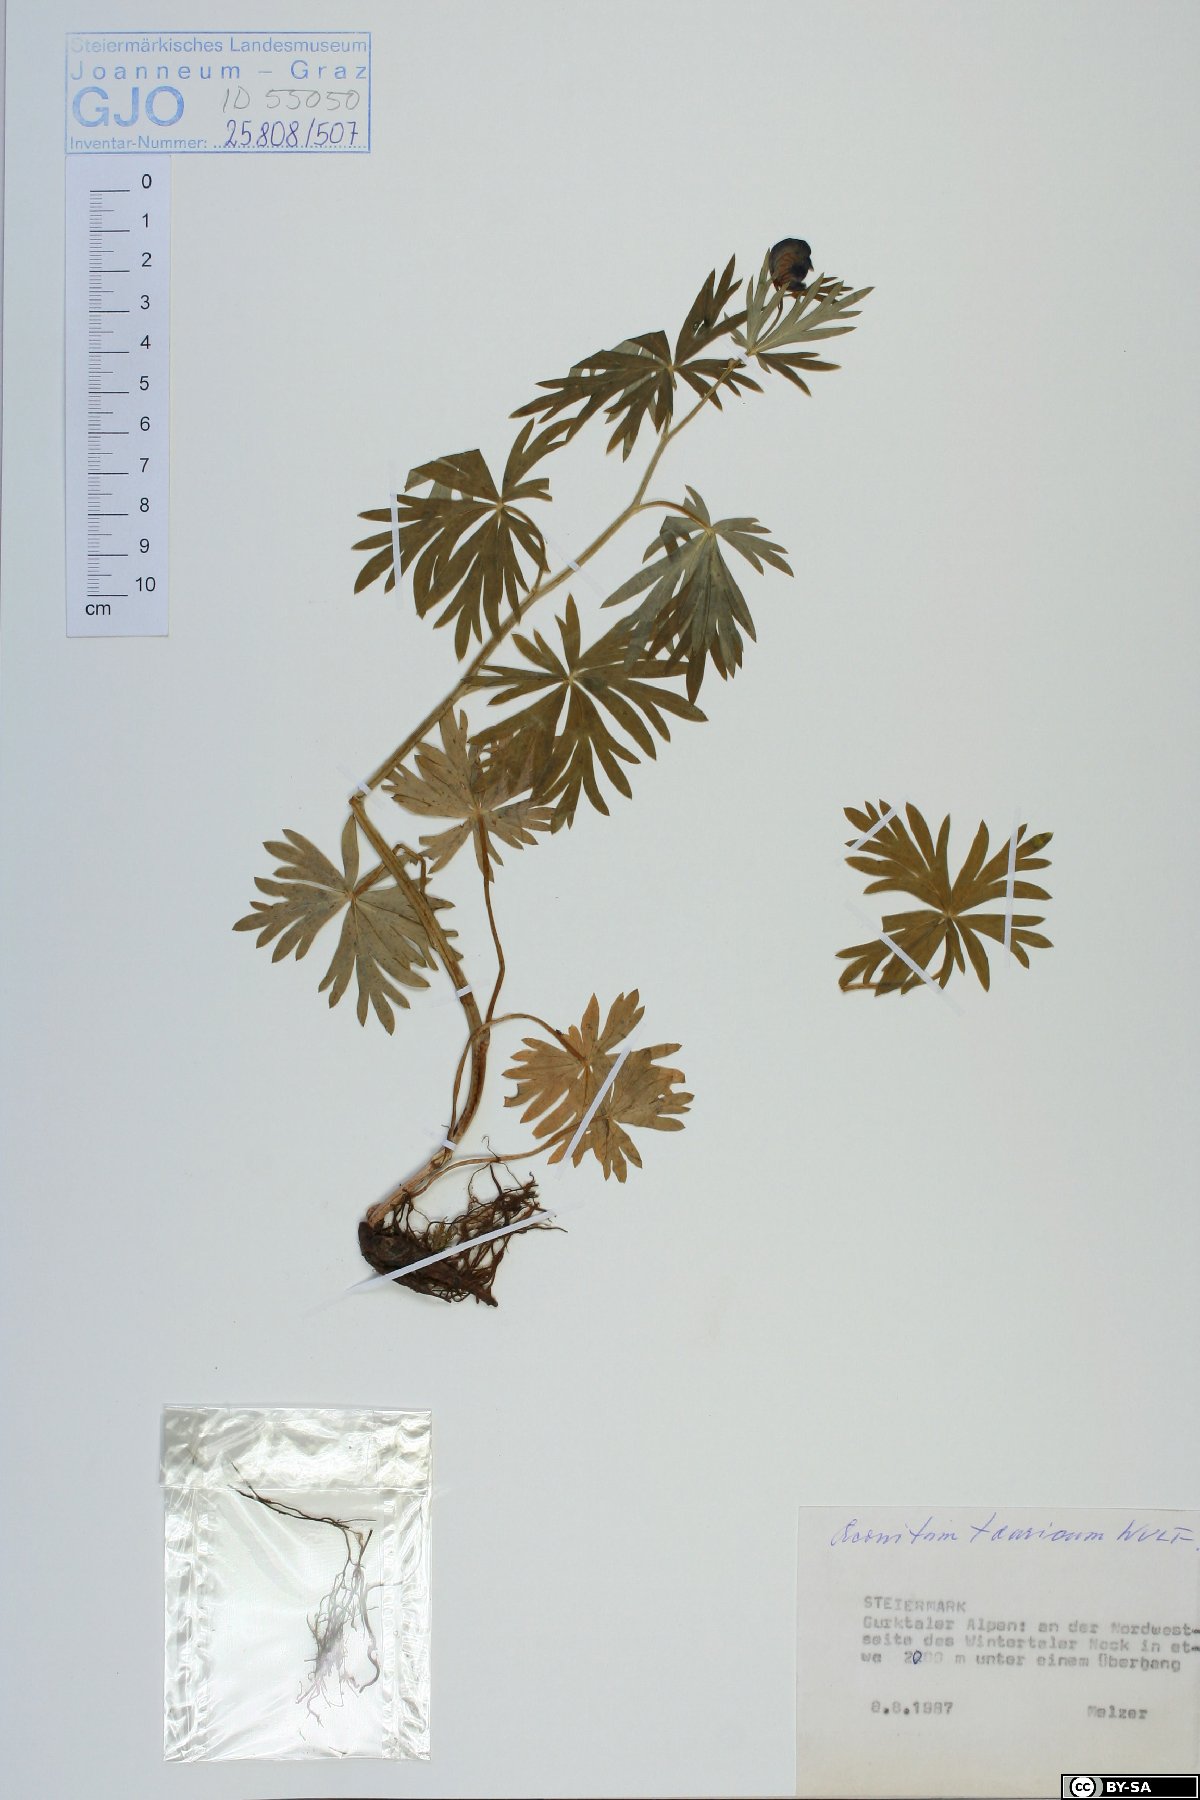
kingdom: Plantae
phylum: Tracheophyta
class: Magnoliopsida
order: Ranunculales
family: Ranunculaceae
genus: Aconitum
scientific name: Aconitum tauricum
